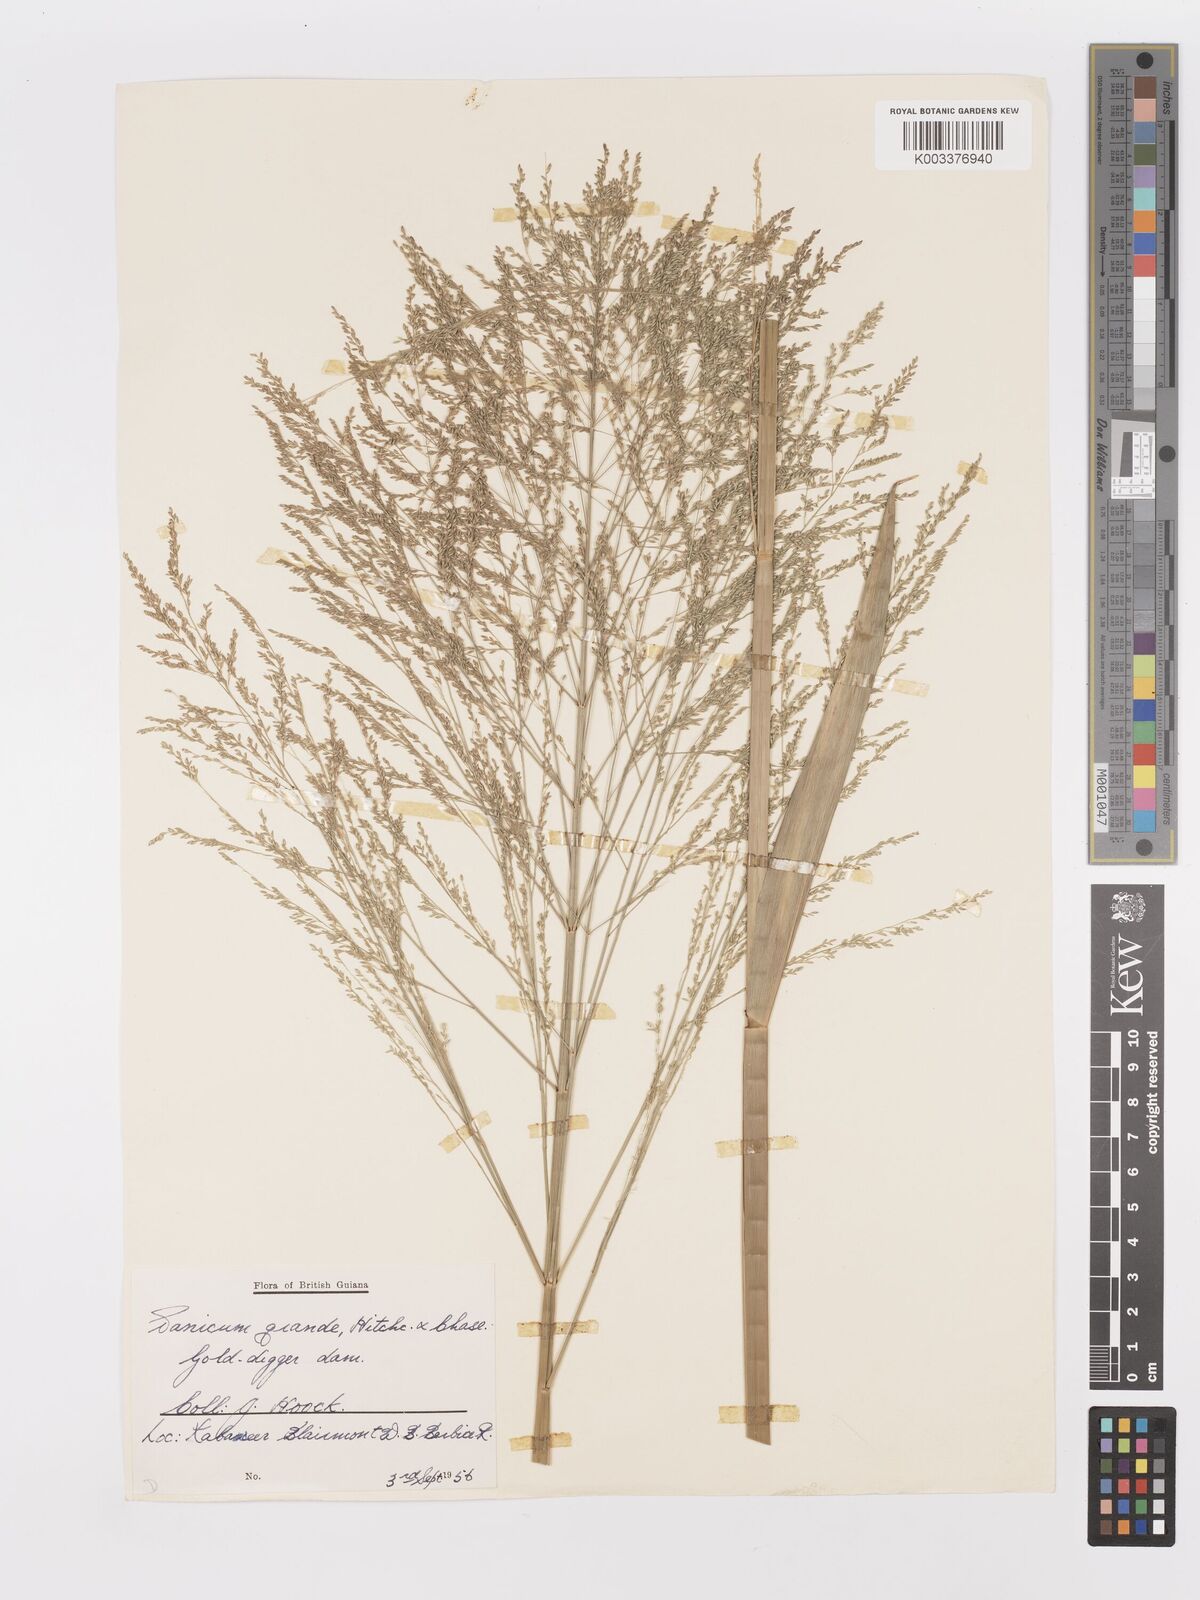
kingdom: Plantae
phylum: Tracheophyta
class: Liliopsida
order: Poales
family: Poaceae
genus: Panicum
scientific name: Panicum subalbidum
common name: Elbow buffalo grass
